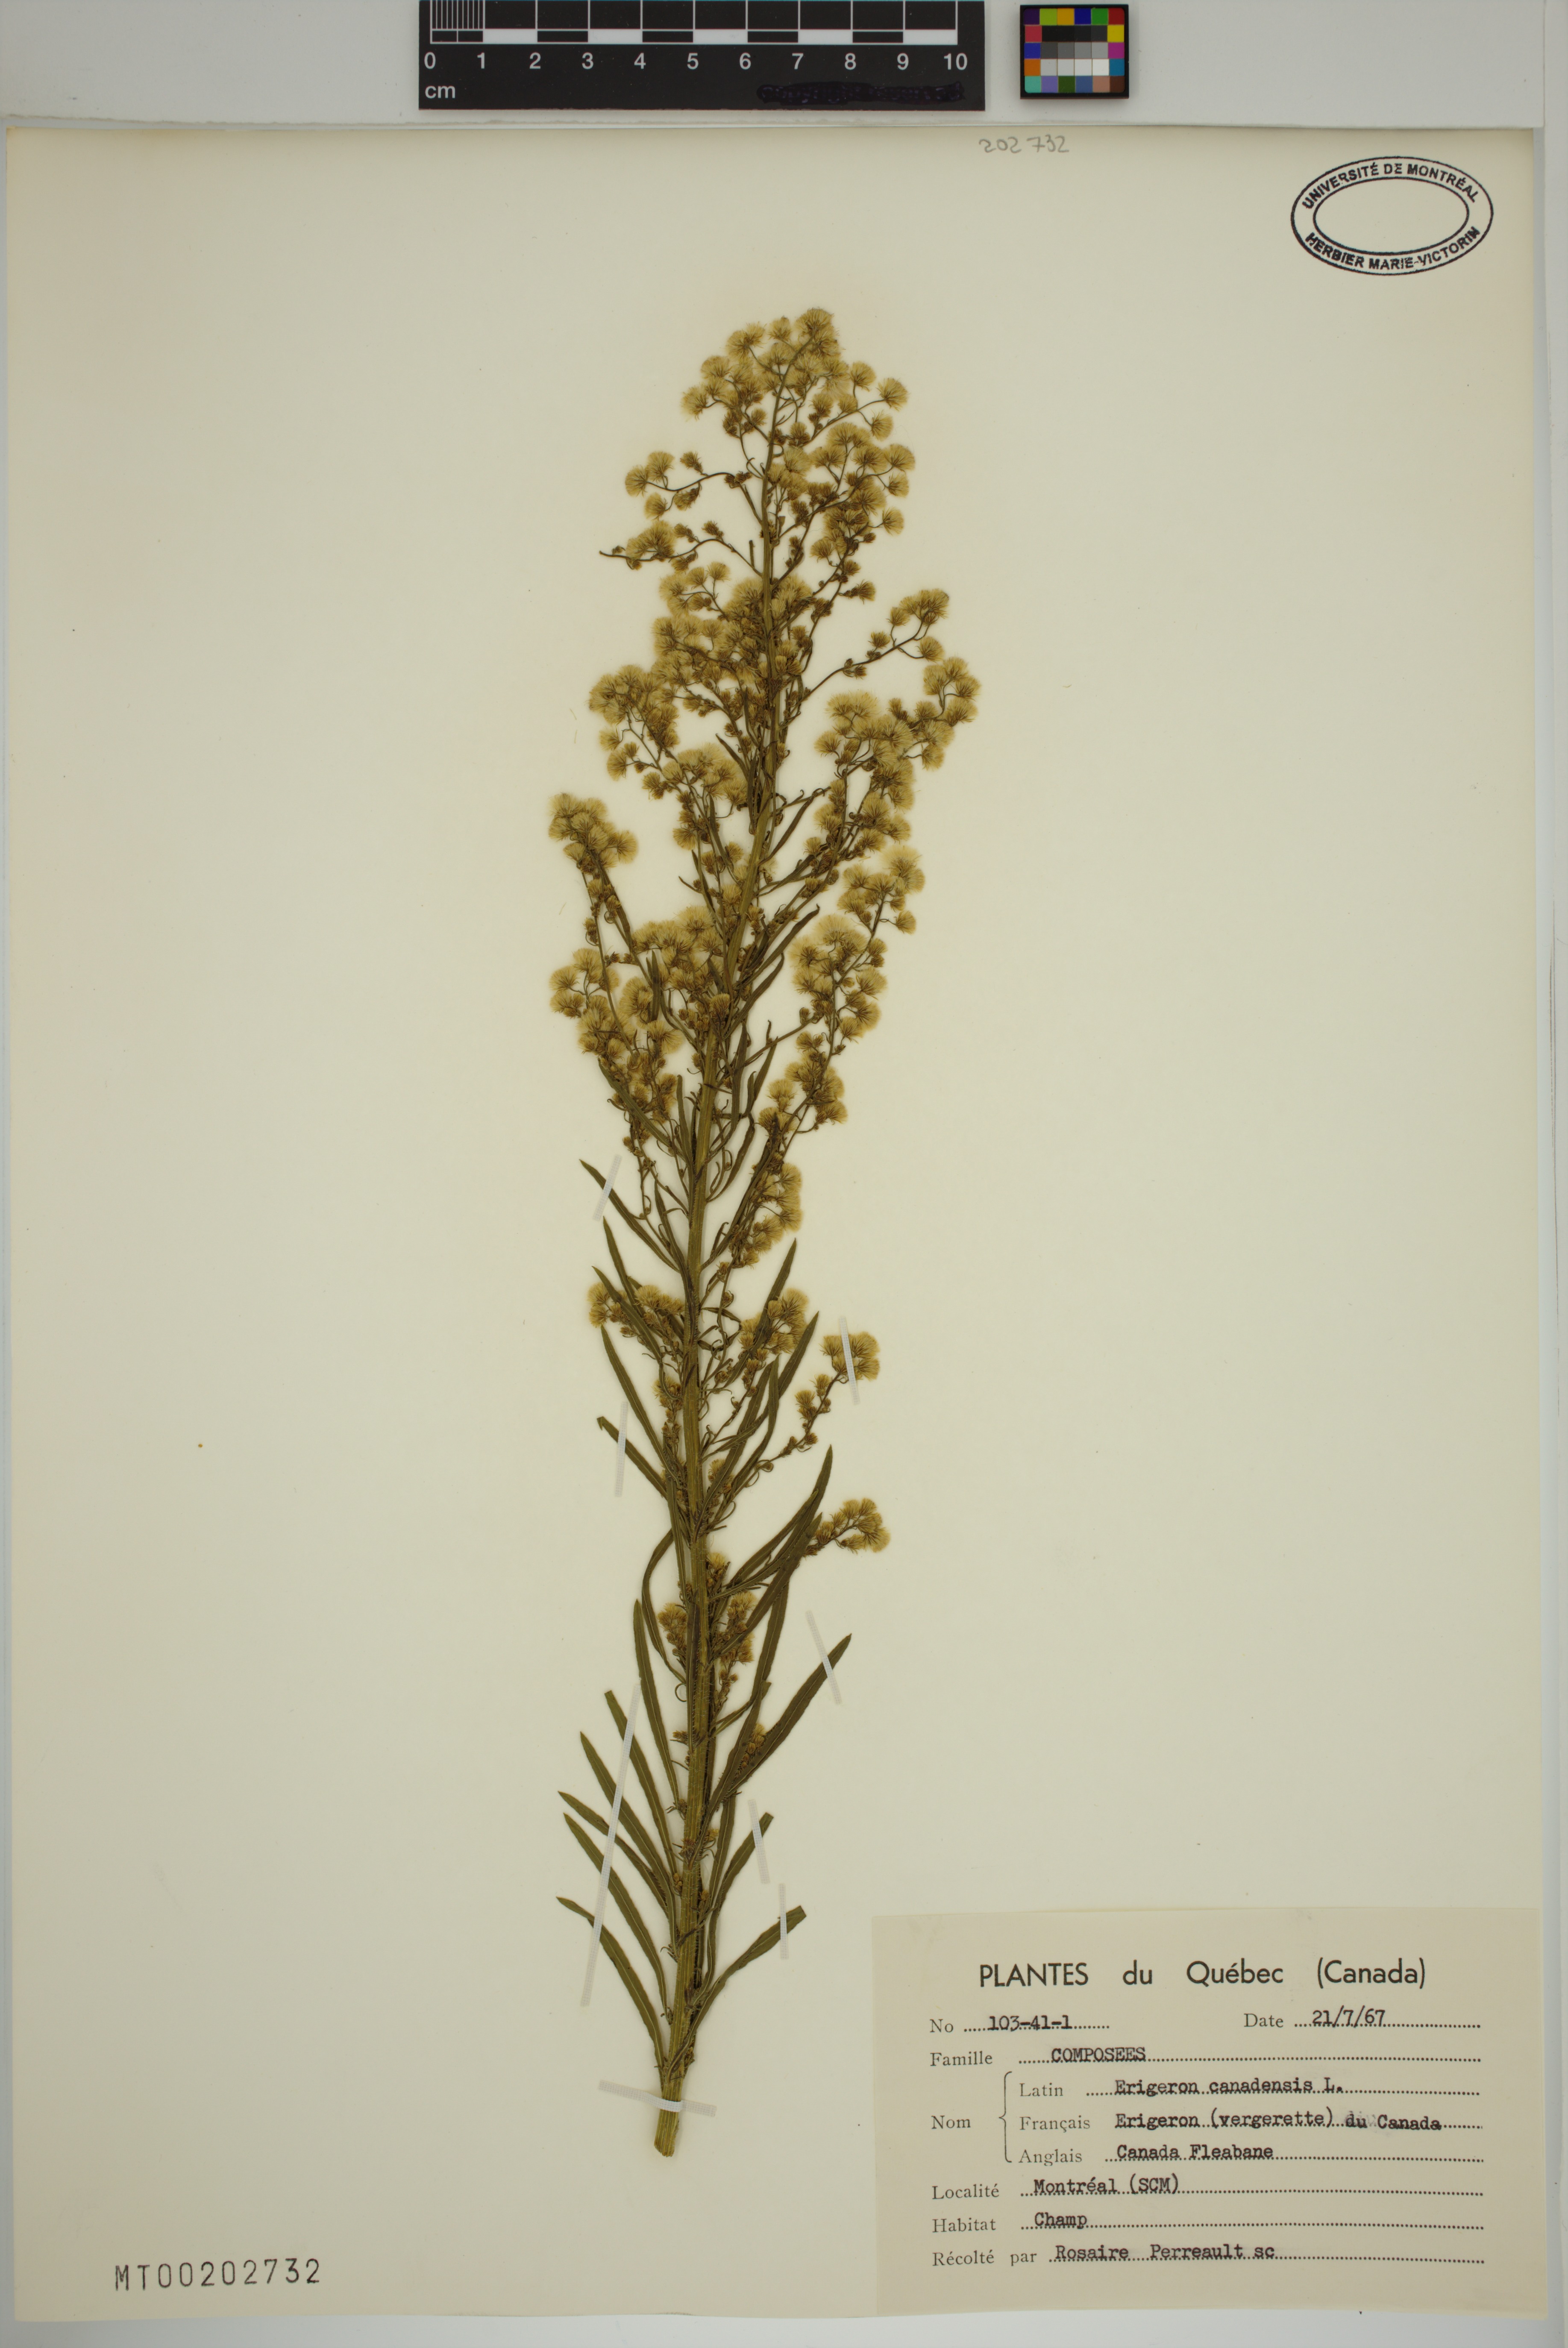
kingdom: Plantae
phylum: Tracheophyta
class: Magnoliopsida
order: Asterales
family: Asteraceae
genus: Erigeron
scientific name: Erigeron canadensis
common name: Canadian fleabane
